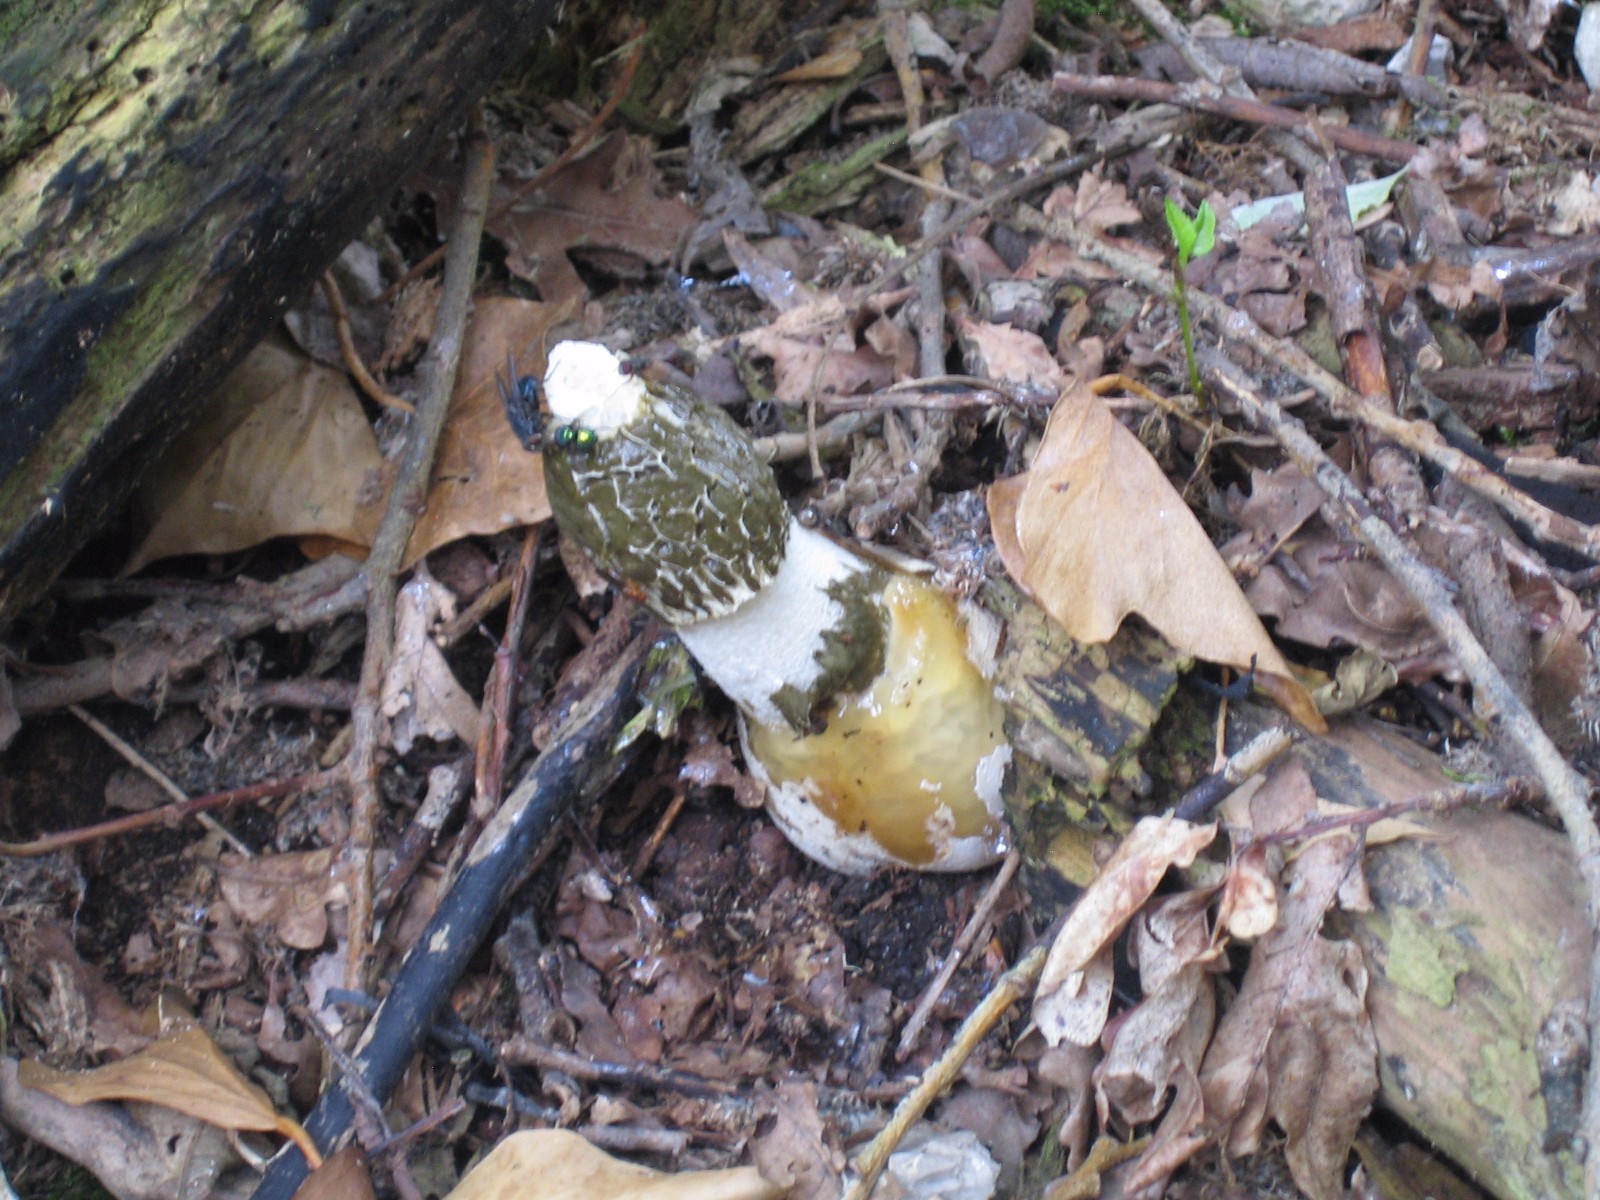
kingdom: Fungi
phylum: Basidiomycota
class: Agaricomycetes
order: Phallales
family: Phallaceae
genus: Phallus
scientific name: Phallus impudicus
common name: almindelig stinksvamp
